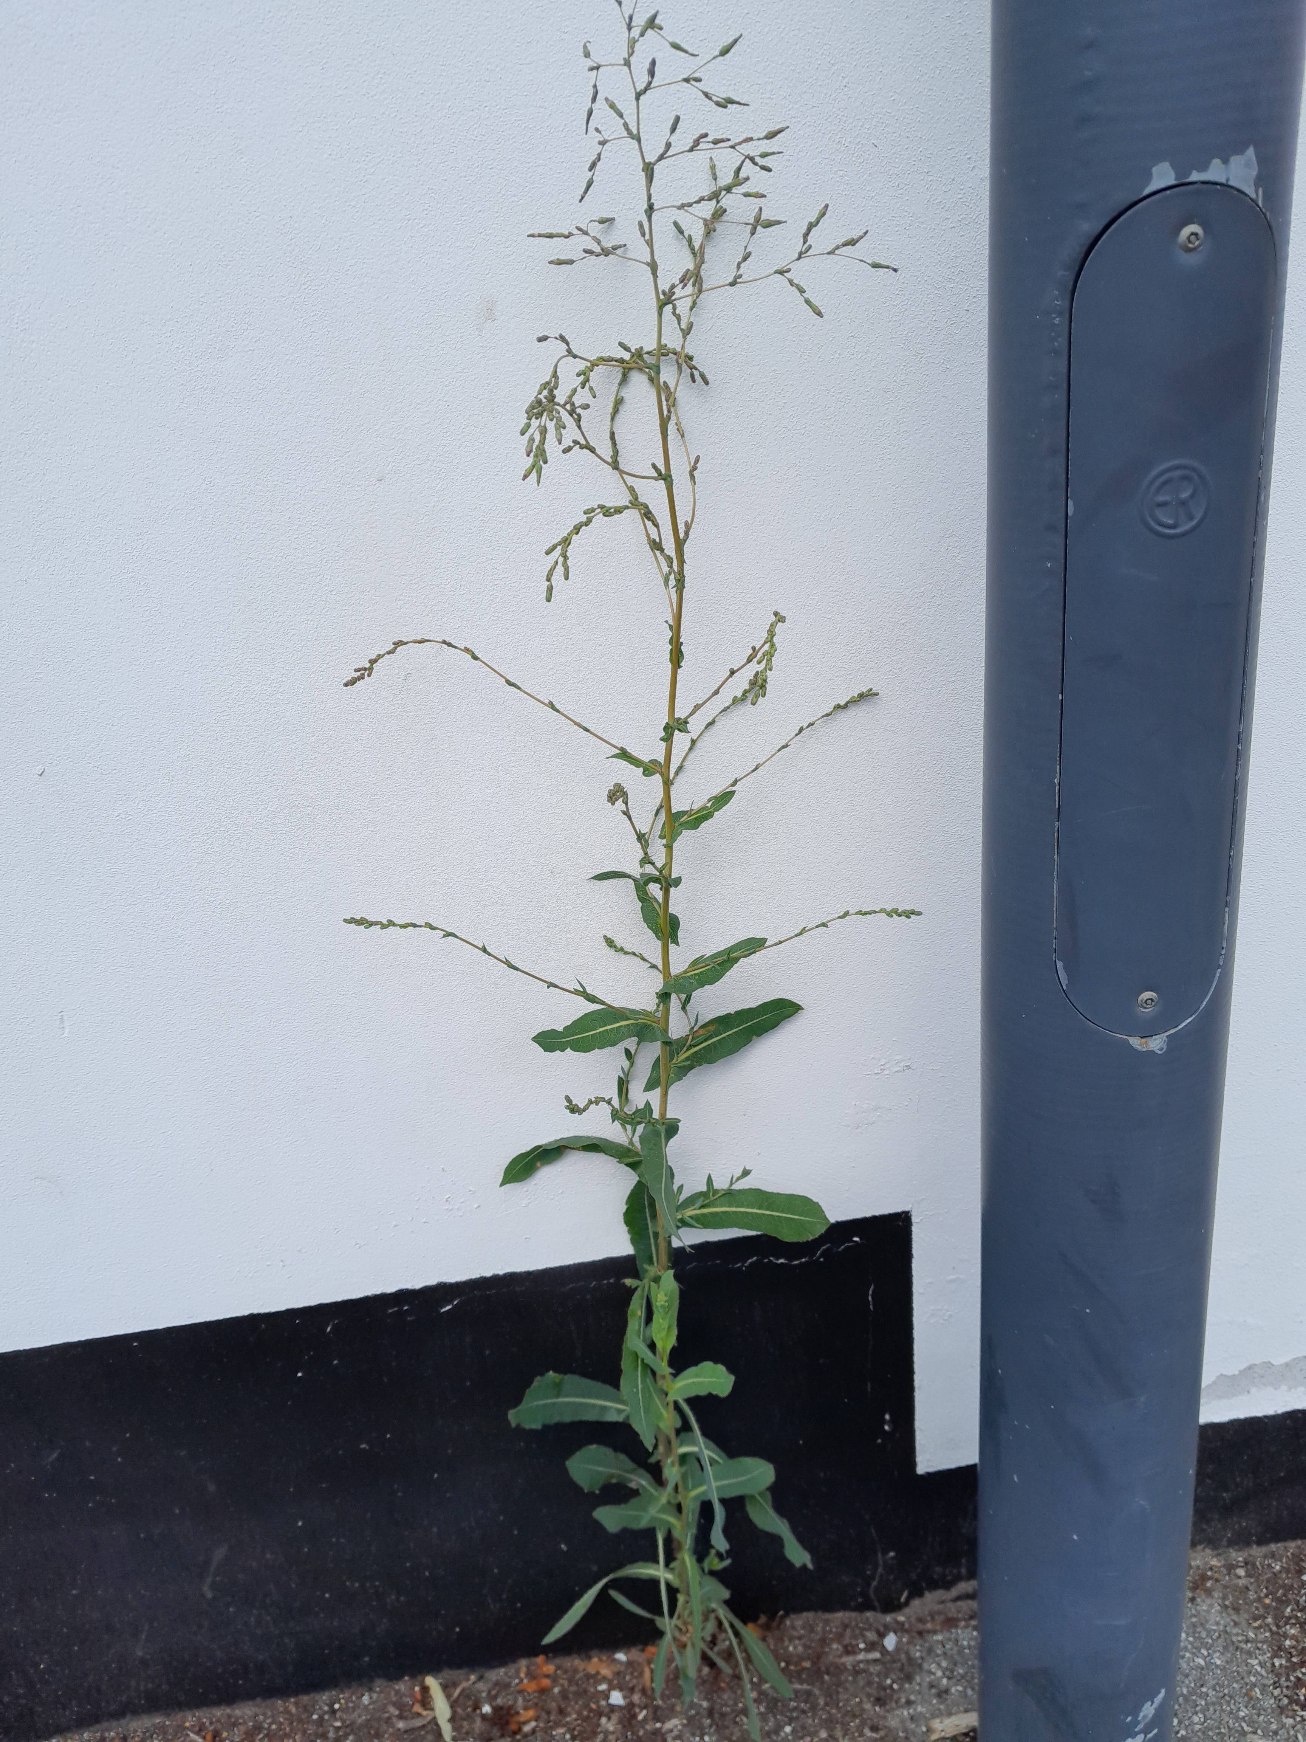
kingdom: Plantae
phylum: Tracheophyta
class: Magnoliopsida
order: Asterales
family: Asteraceae
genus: Lactuca
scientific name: Lactuca serriola
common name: Tornet salat
